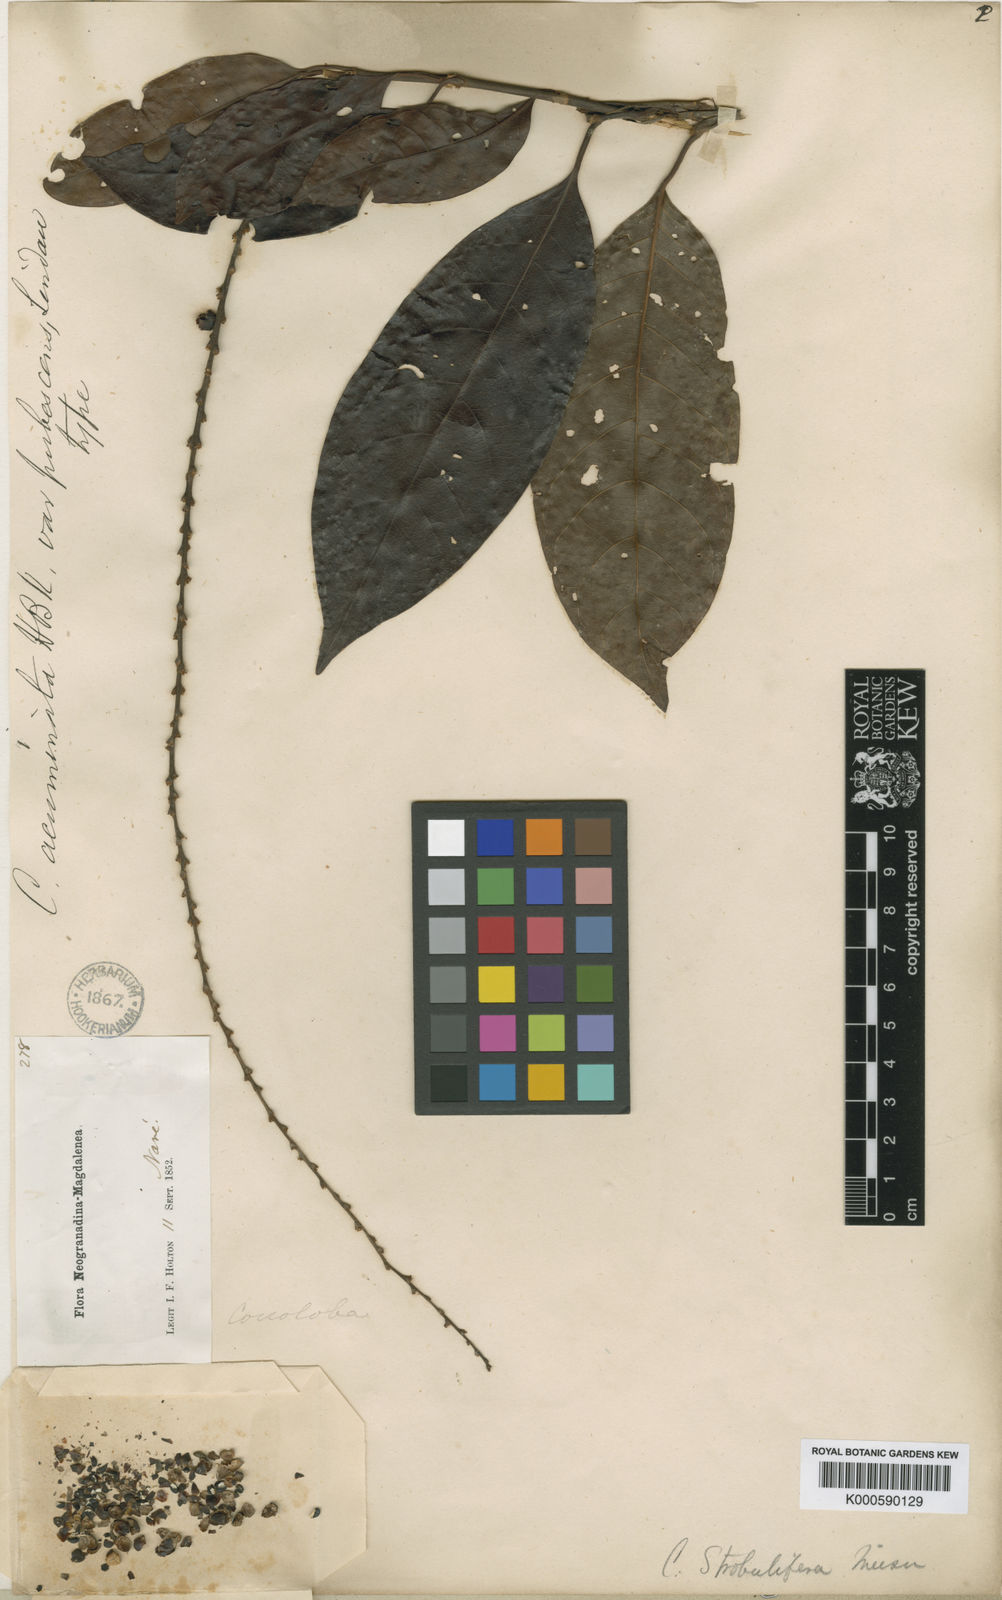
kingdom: Plantae
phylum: Tracheophyta
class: Magnoliopsida
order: Caryophyllales
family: Polygonaceae
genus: Coccoloba
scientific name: Coccoloba acuminata
